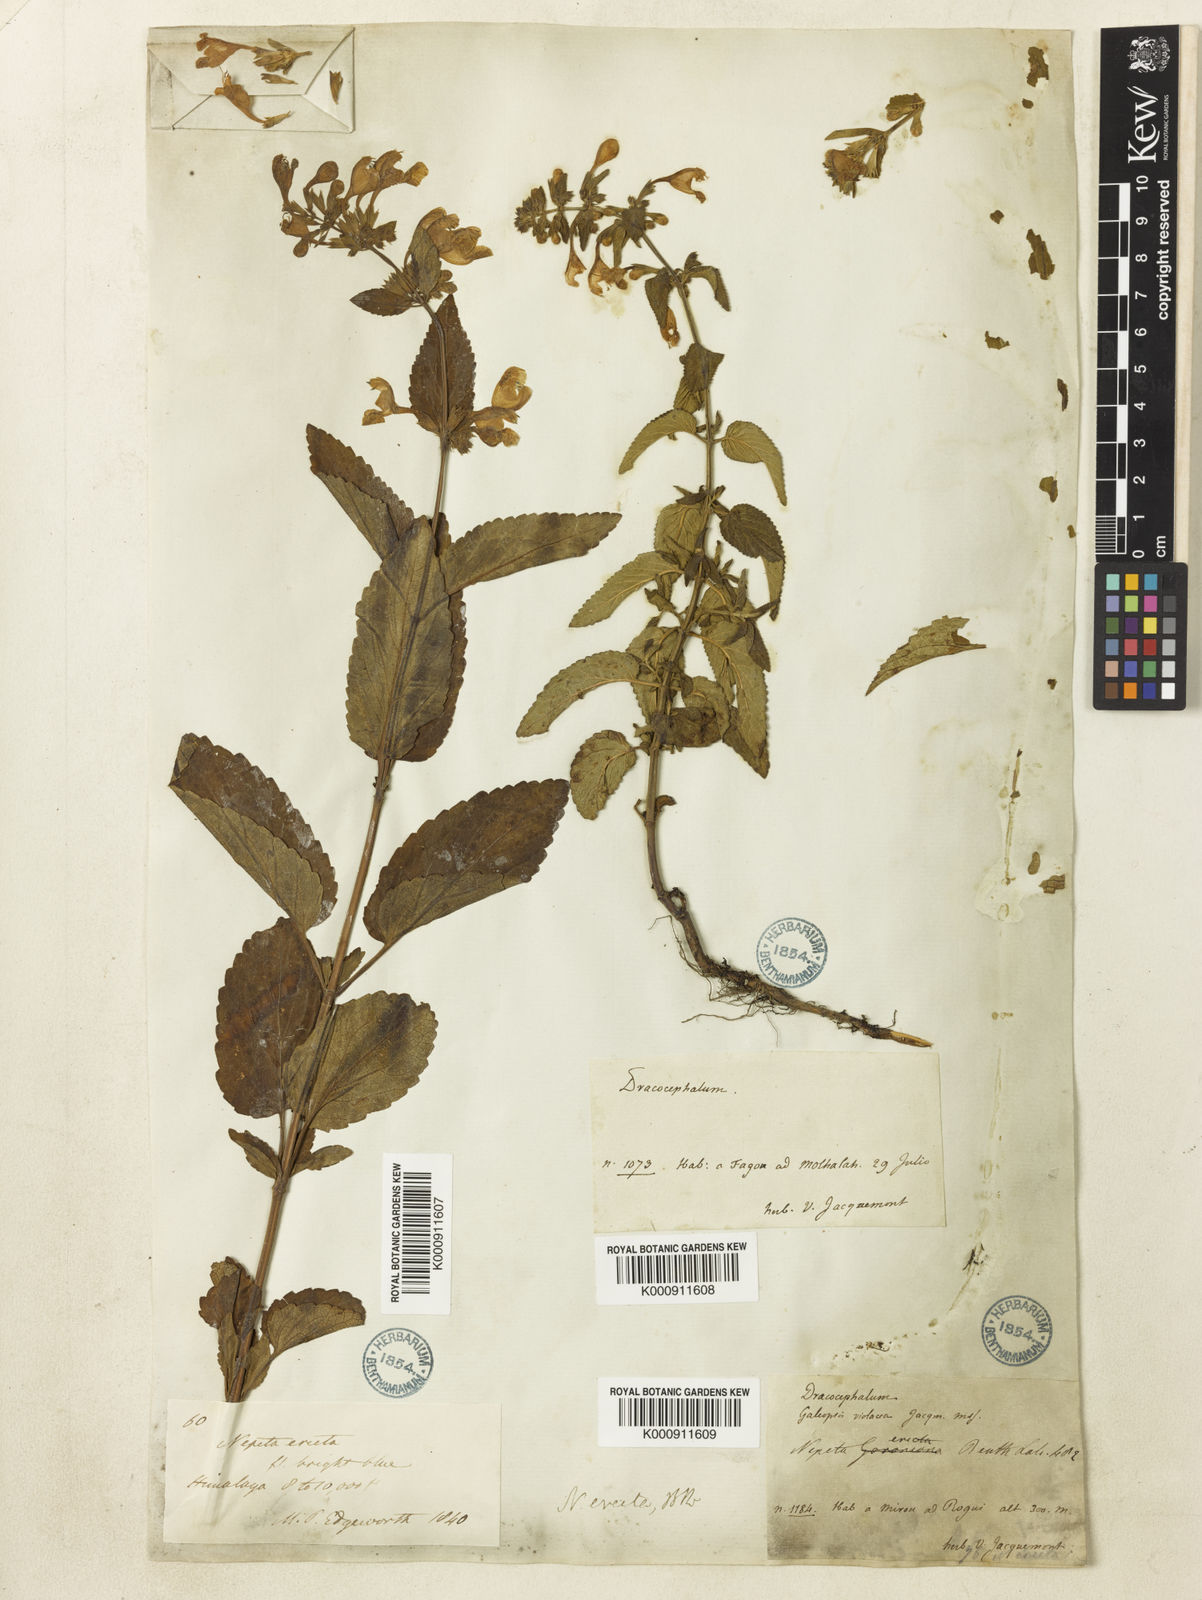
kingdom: Plantae
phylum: Tracheophyta
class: Magnoliopsida
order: Lamiales
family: Lamiaceae
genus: Nepeta
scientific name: Nepeta erecta
